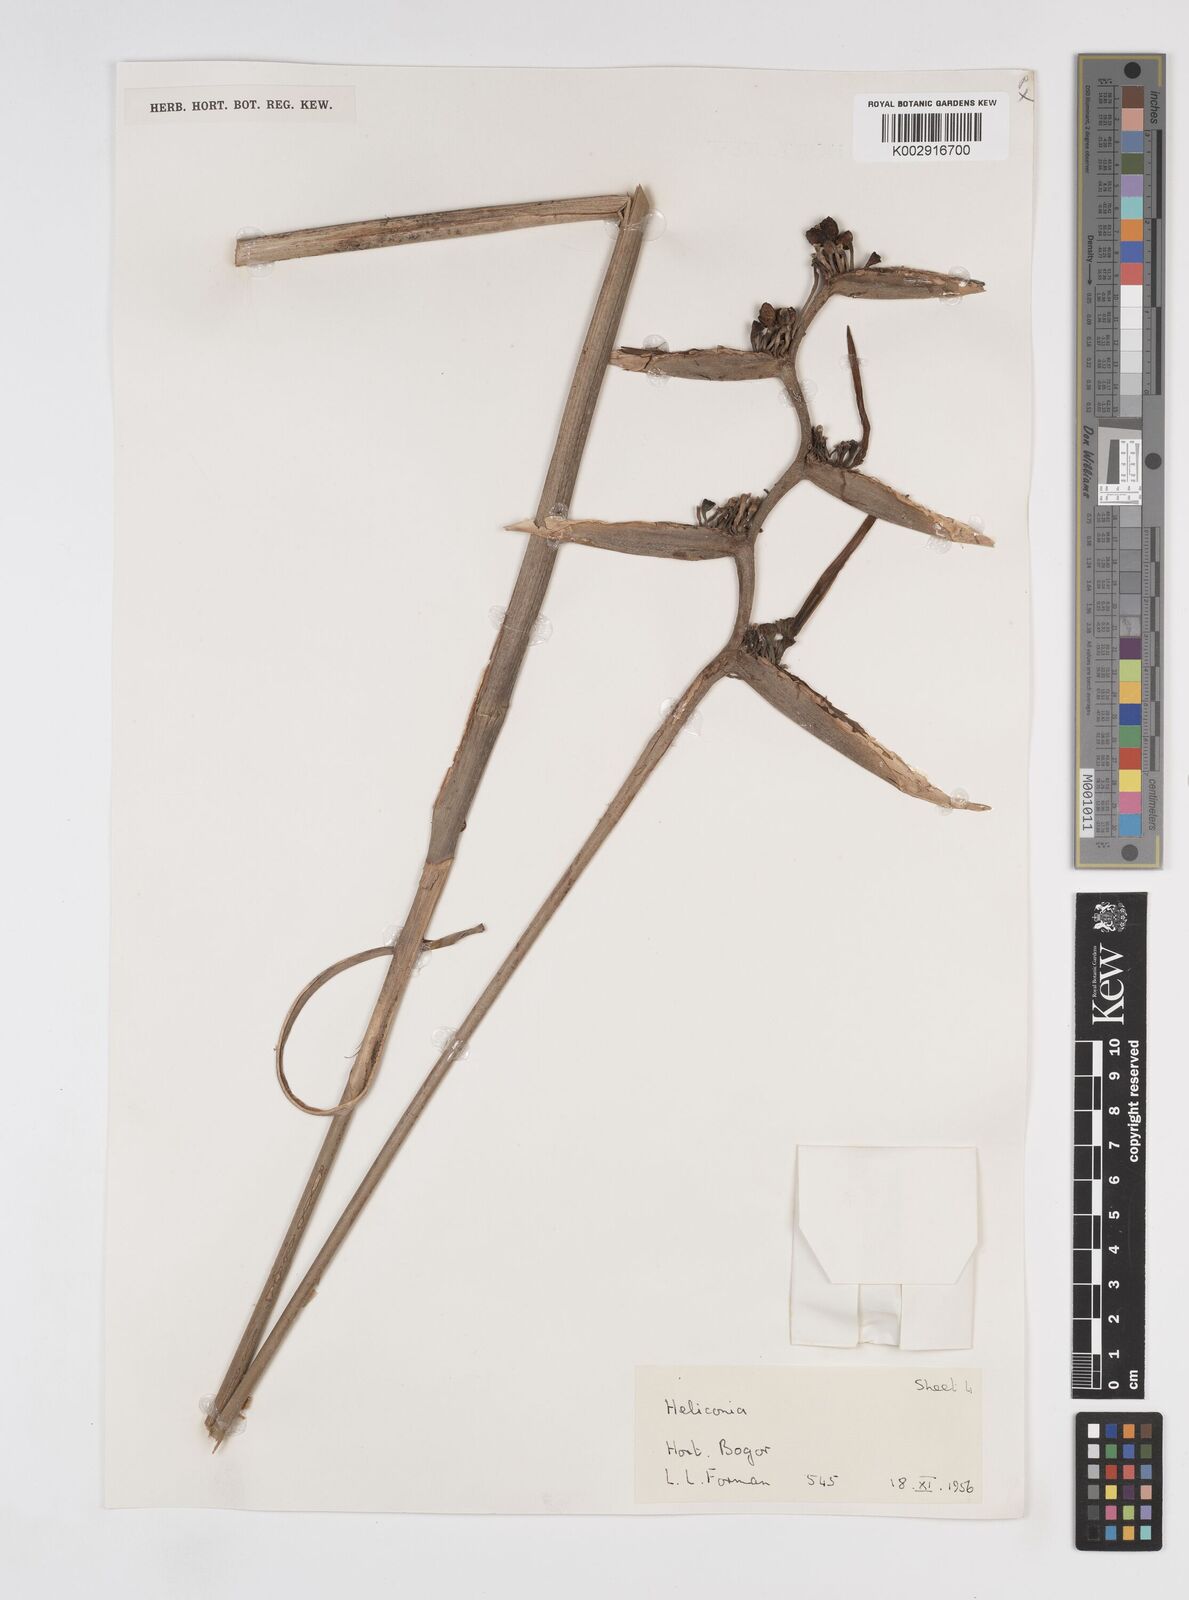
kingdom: Plantae
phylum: Tracheophyta
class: Liliopsida
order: Zingiberales
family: Heliconiaceae
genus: Heliconia
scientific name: Heliconia metallica
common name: Shining bird of paradise
